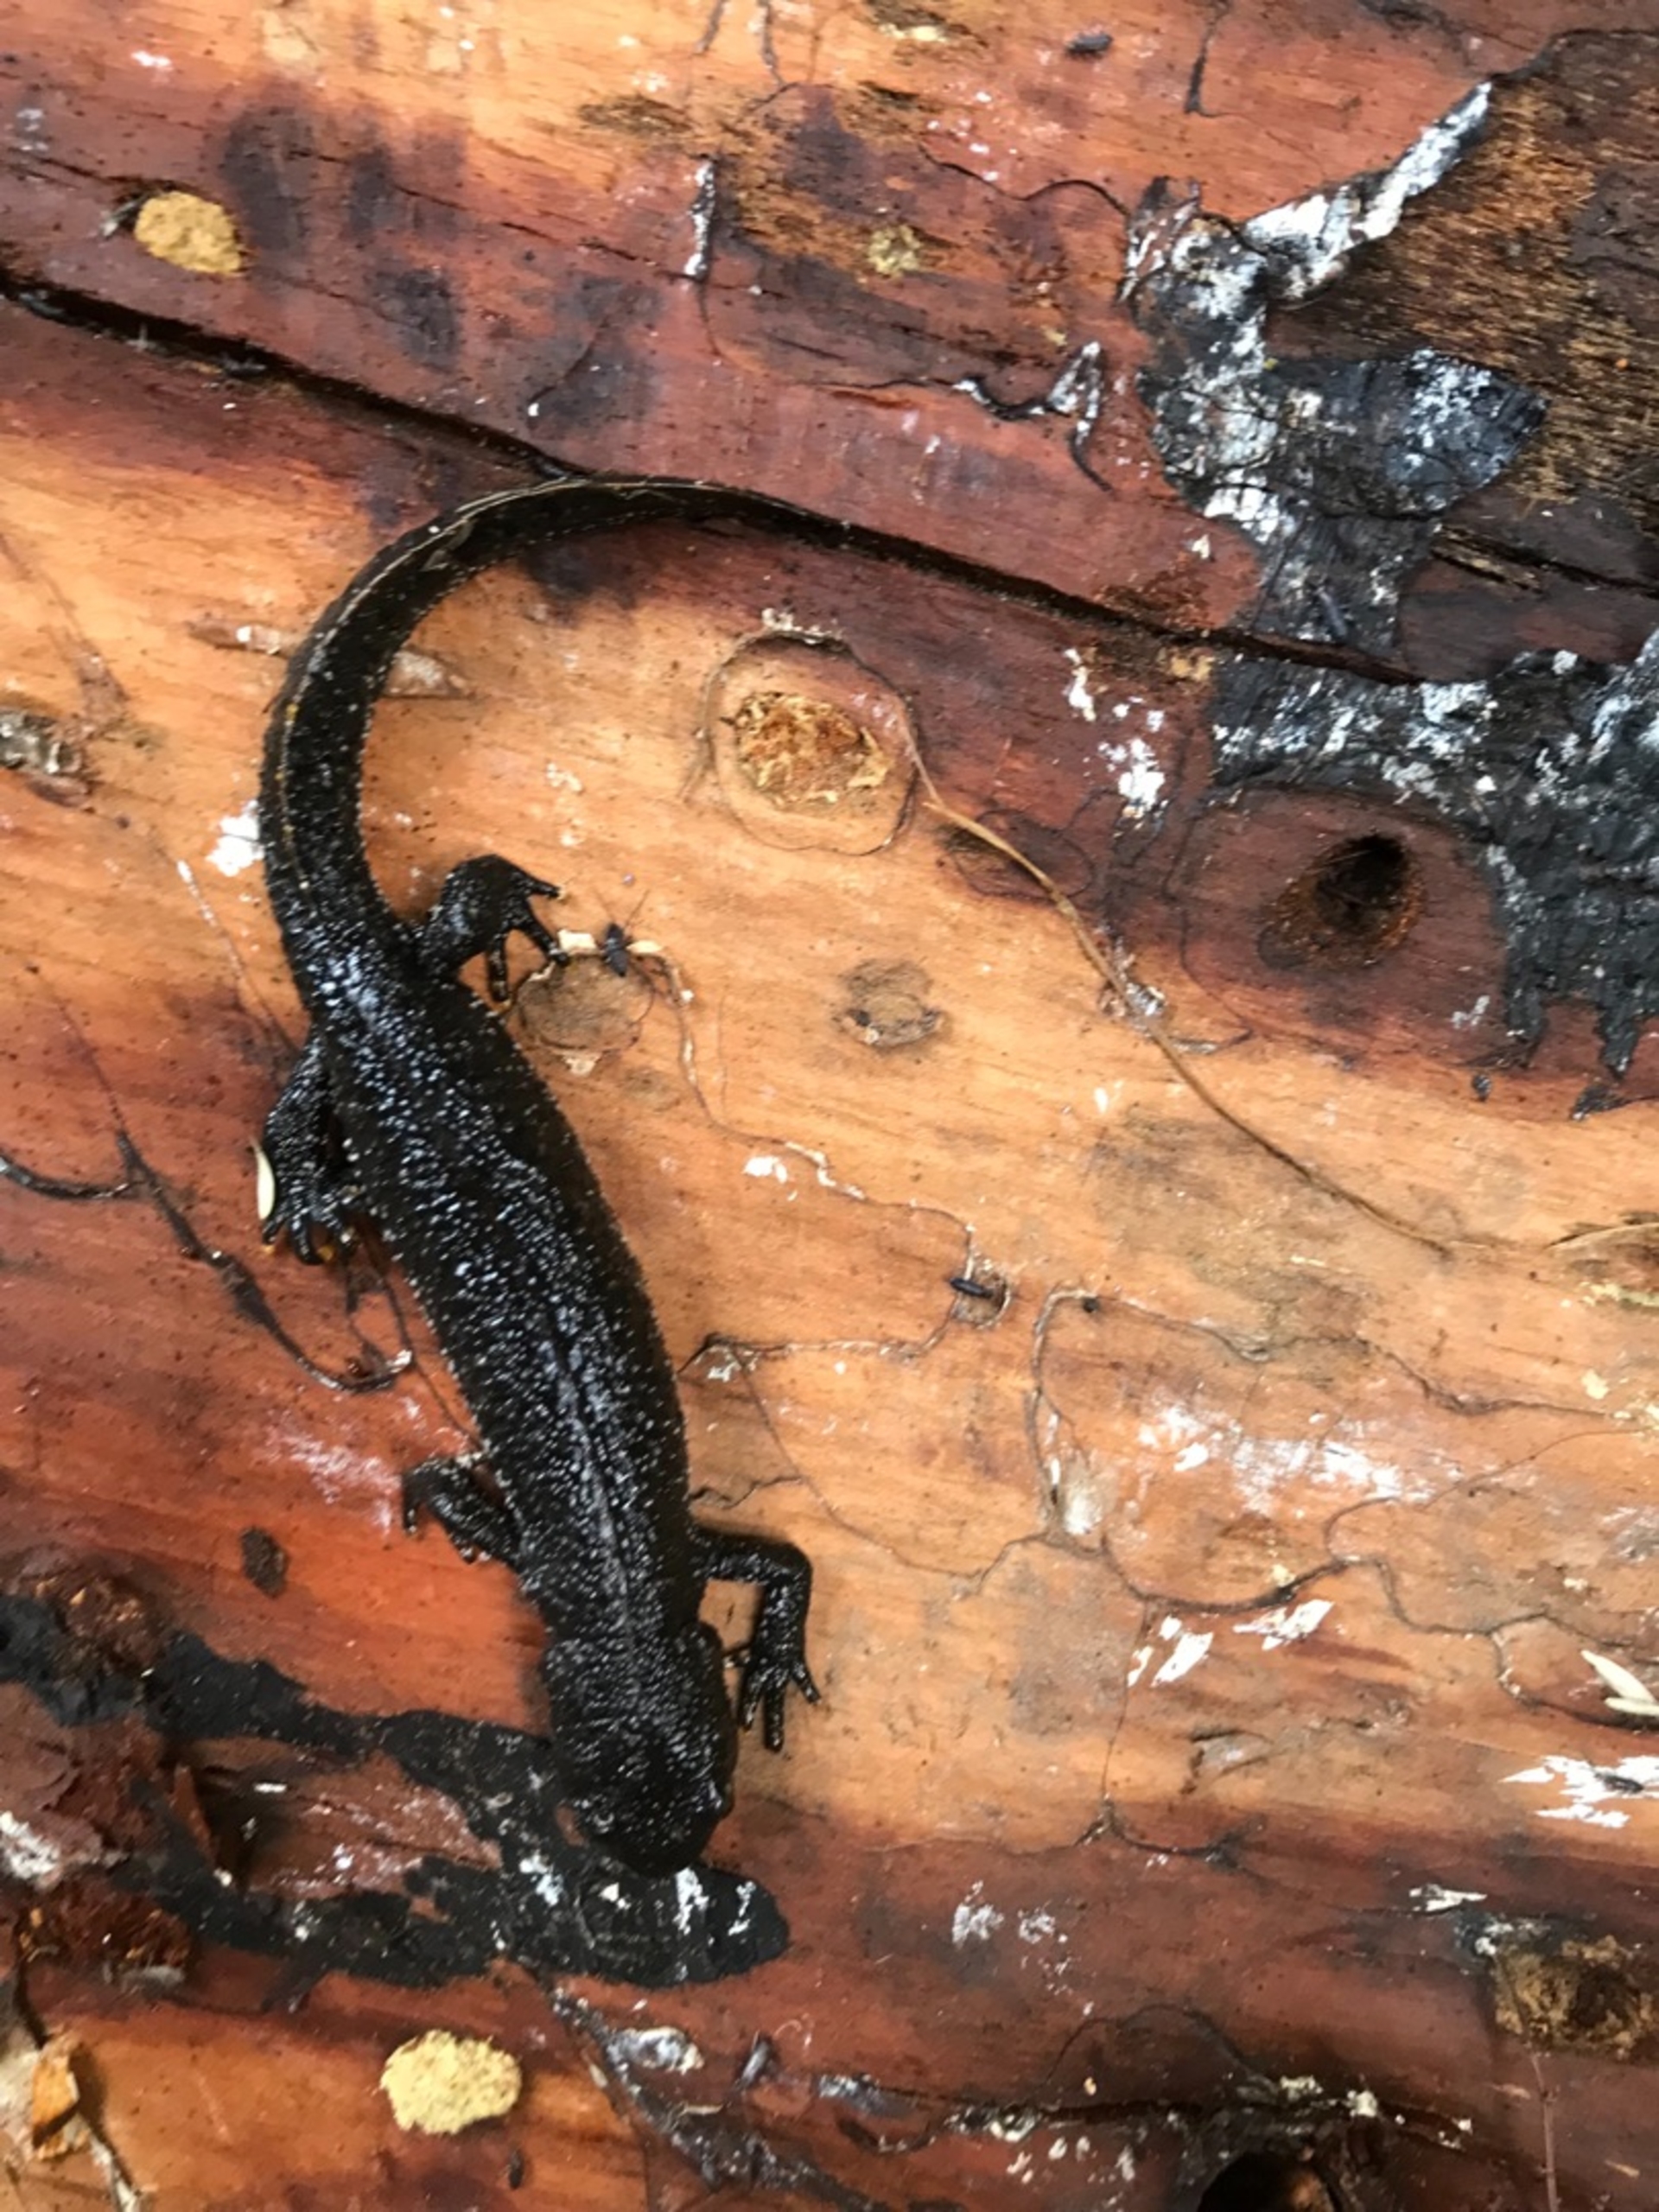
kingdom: Animalia
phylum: Chordata
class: Amphibia
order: Caudata
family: Salamandridae
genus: Triturus
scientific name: Triturus cristatus
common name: Stor vandsalamander
